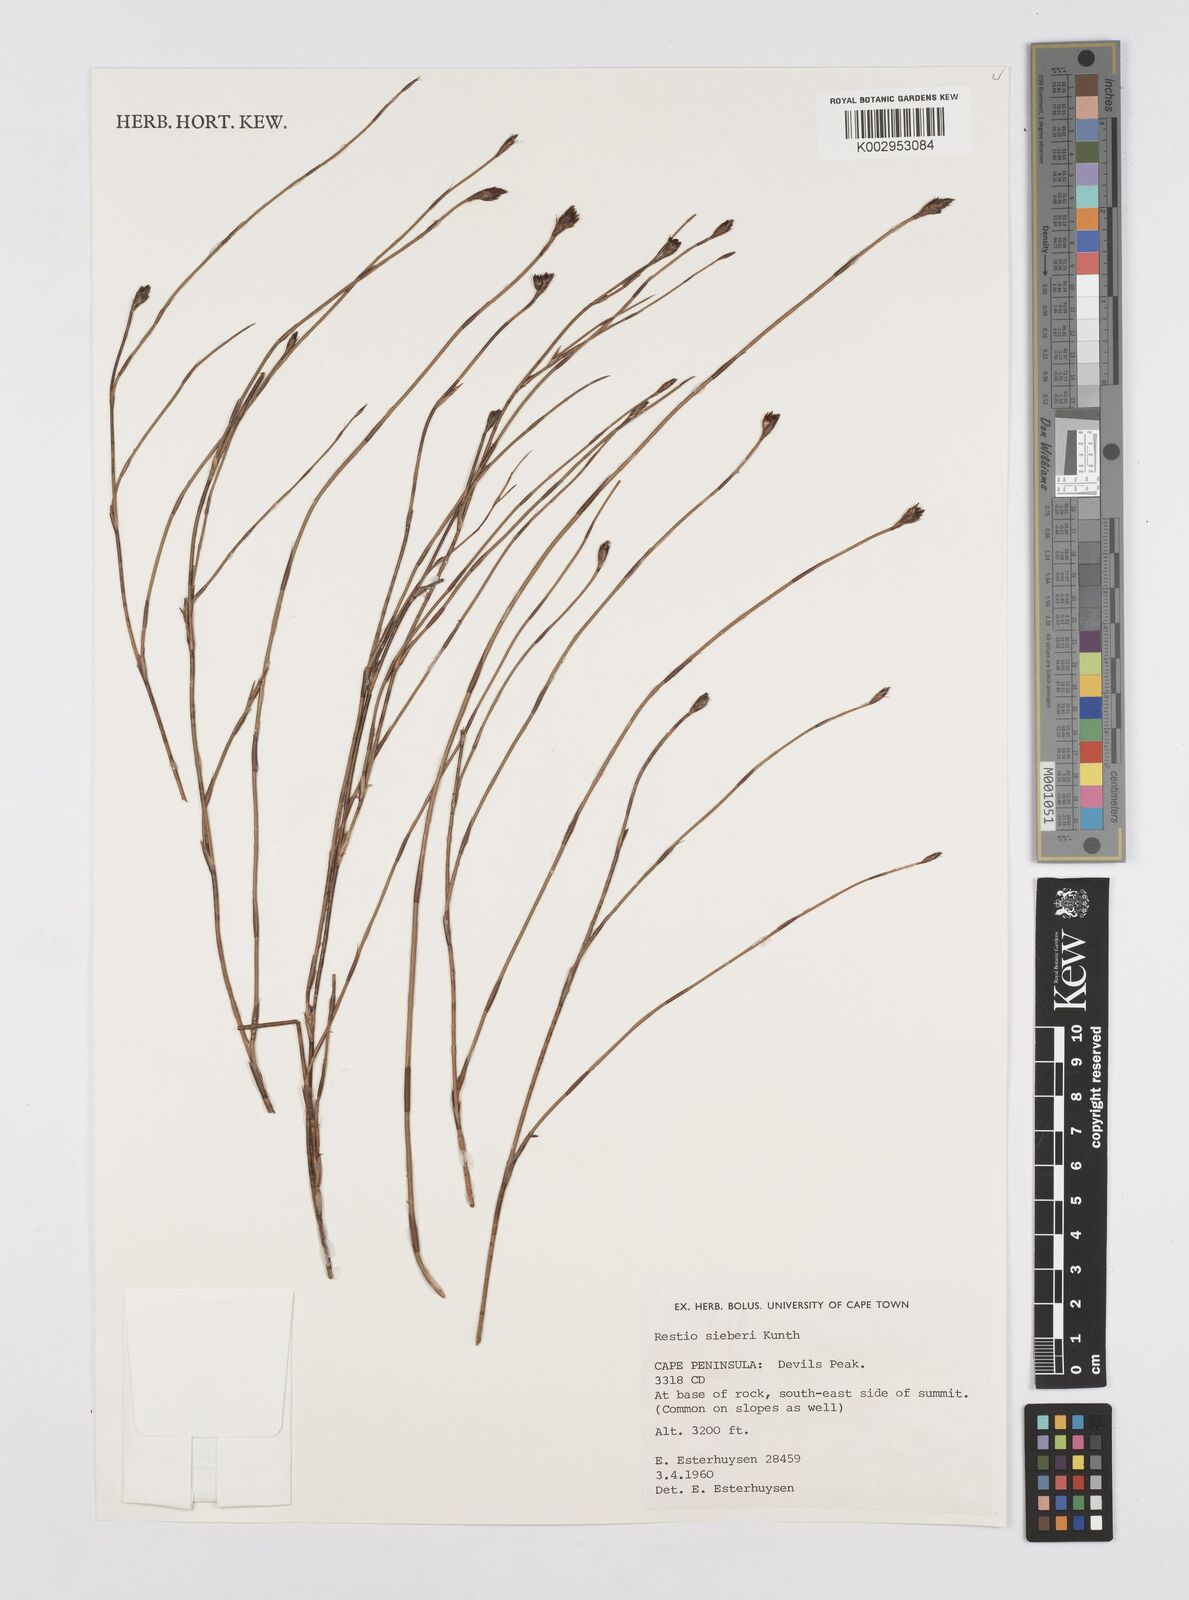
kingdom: Plantae
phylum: Tracheophyta
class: Liliopsida
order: Poales
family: Restionaceae
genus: Restio
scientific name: Restio sieberi
